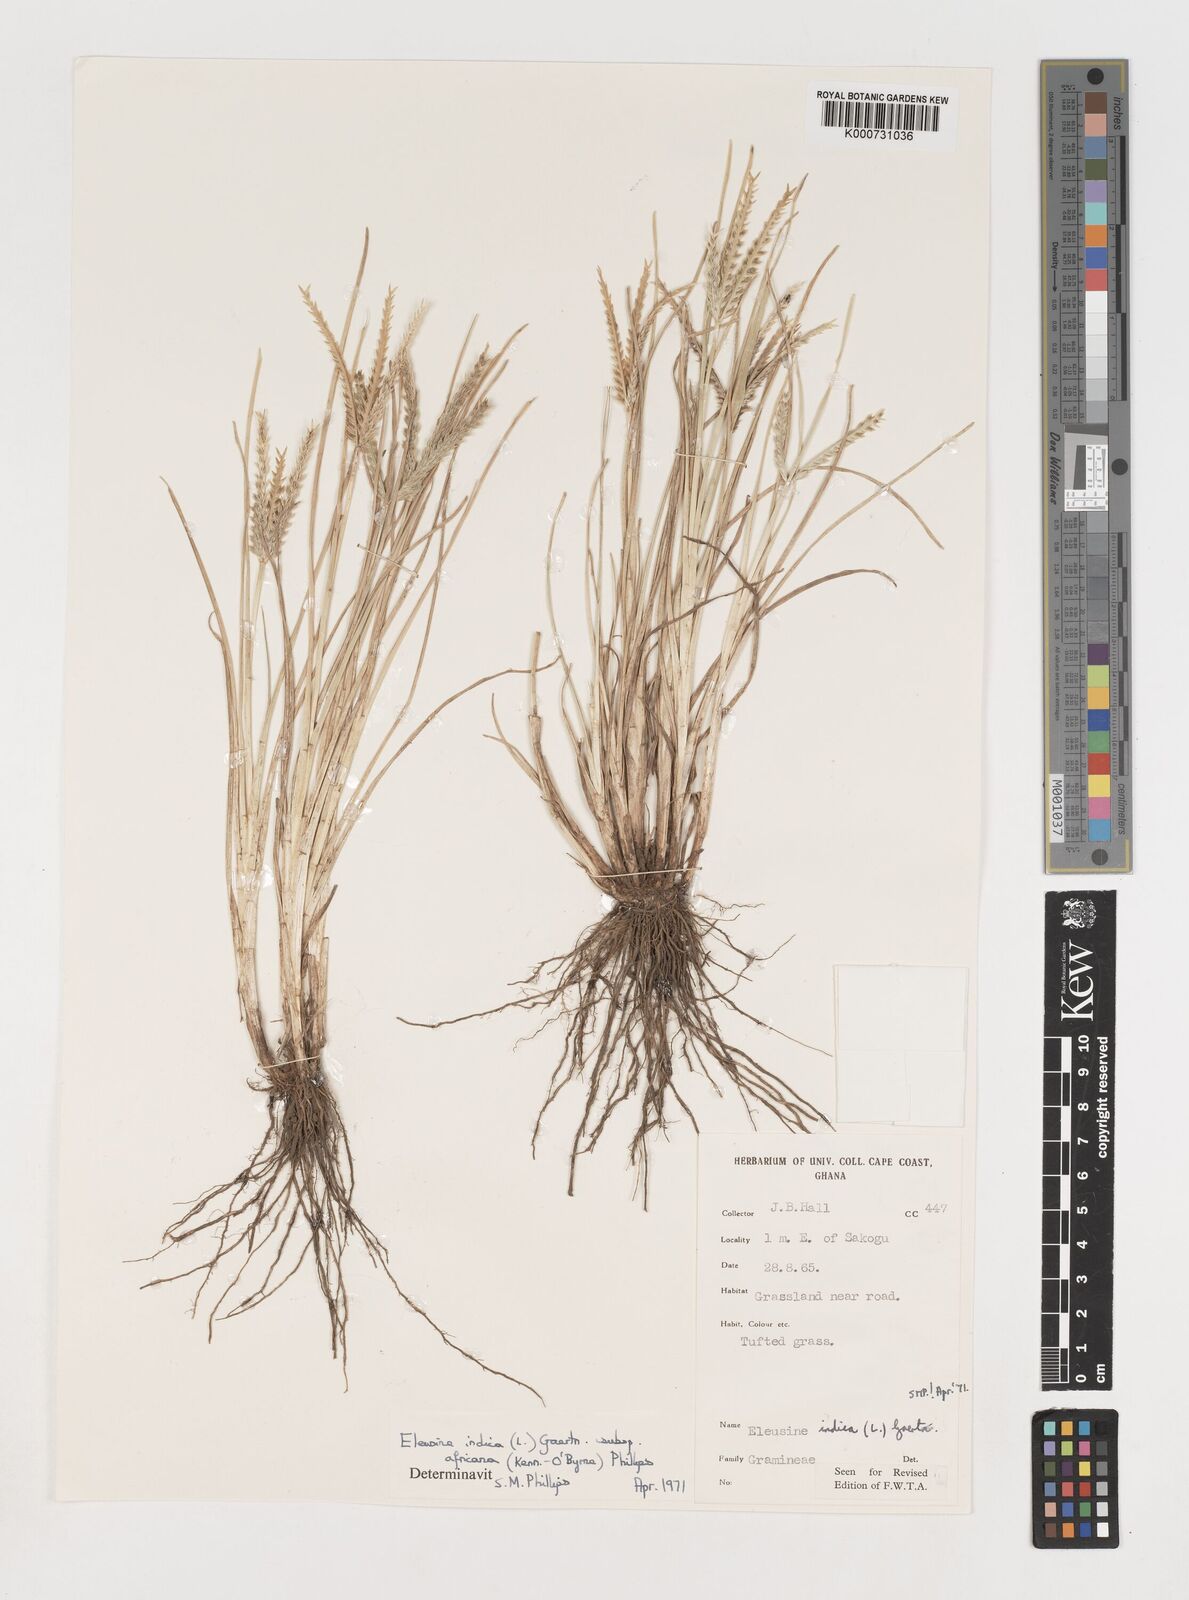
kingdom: Plantae
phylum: Tracheophyta
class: Liliopsida
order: Poales
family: Poaceae
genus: Eleusine
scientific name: Eleusine africana
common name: Wild african finger millet
